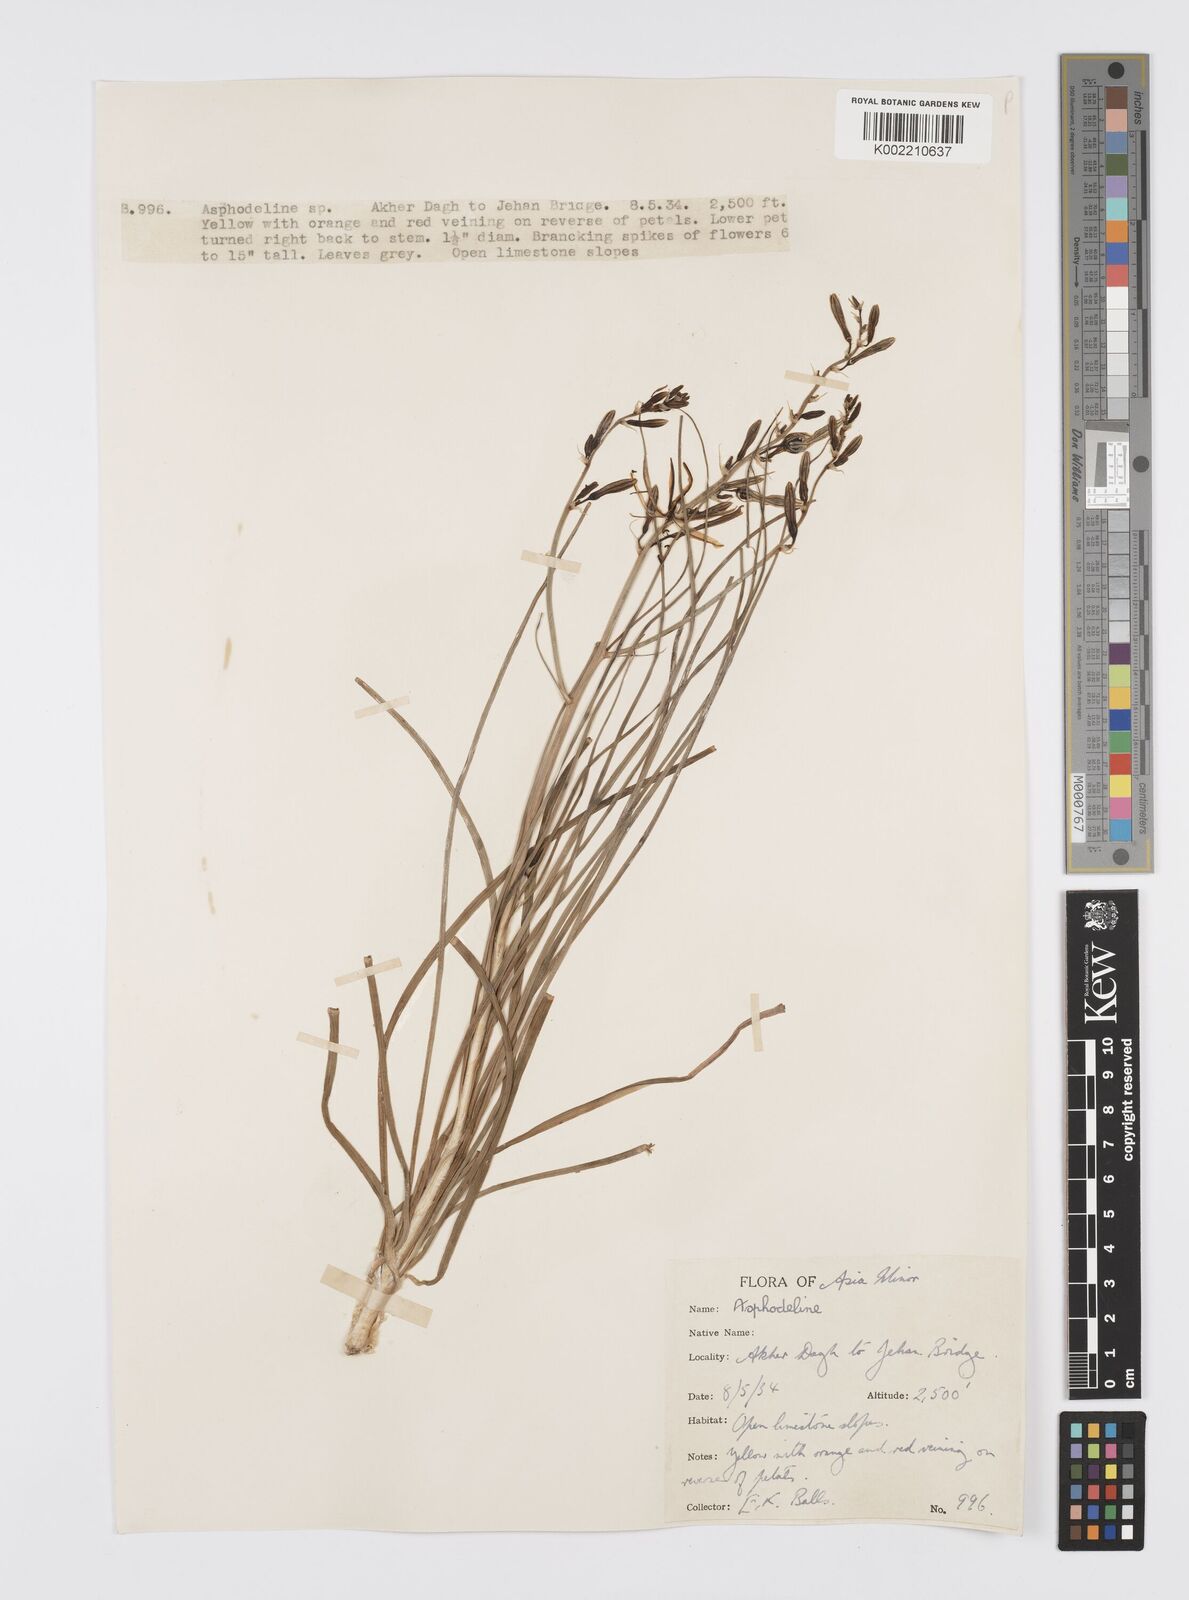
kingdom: Plantae
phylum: Tracheophyta
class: Liliopsida
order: Asparagales
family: Asphodelaceae
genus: Asphodeline
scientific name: Asphodeline brevicaulis
